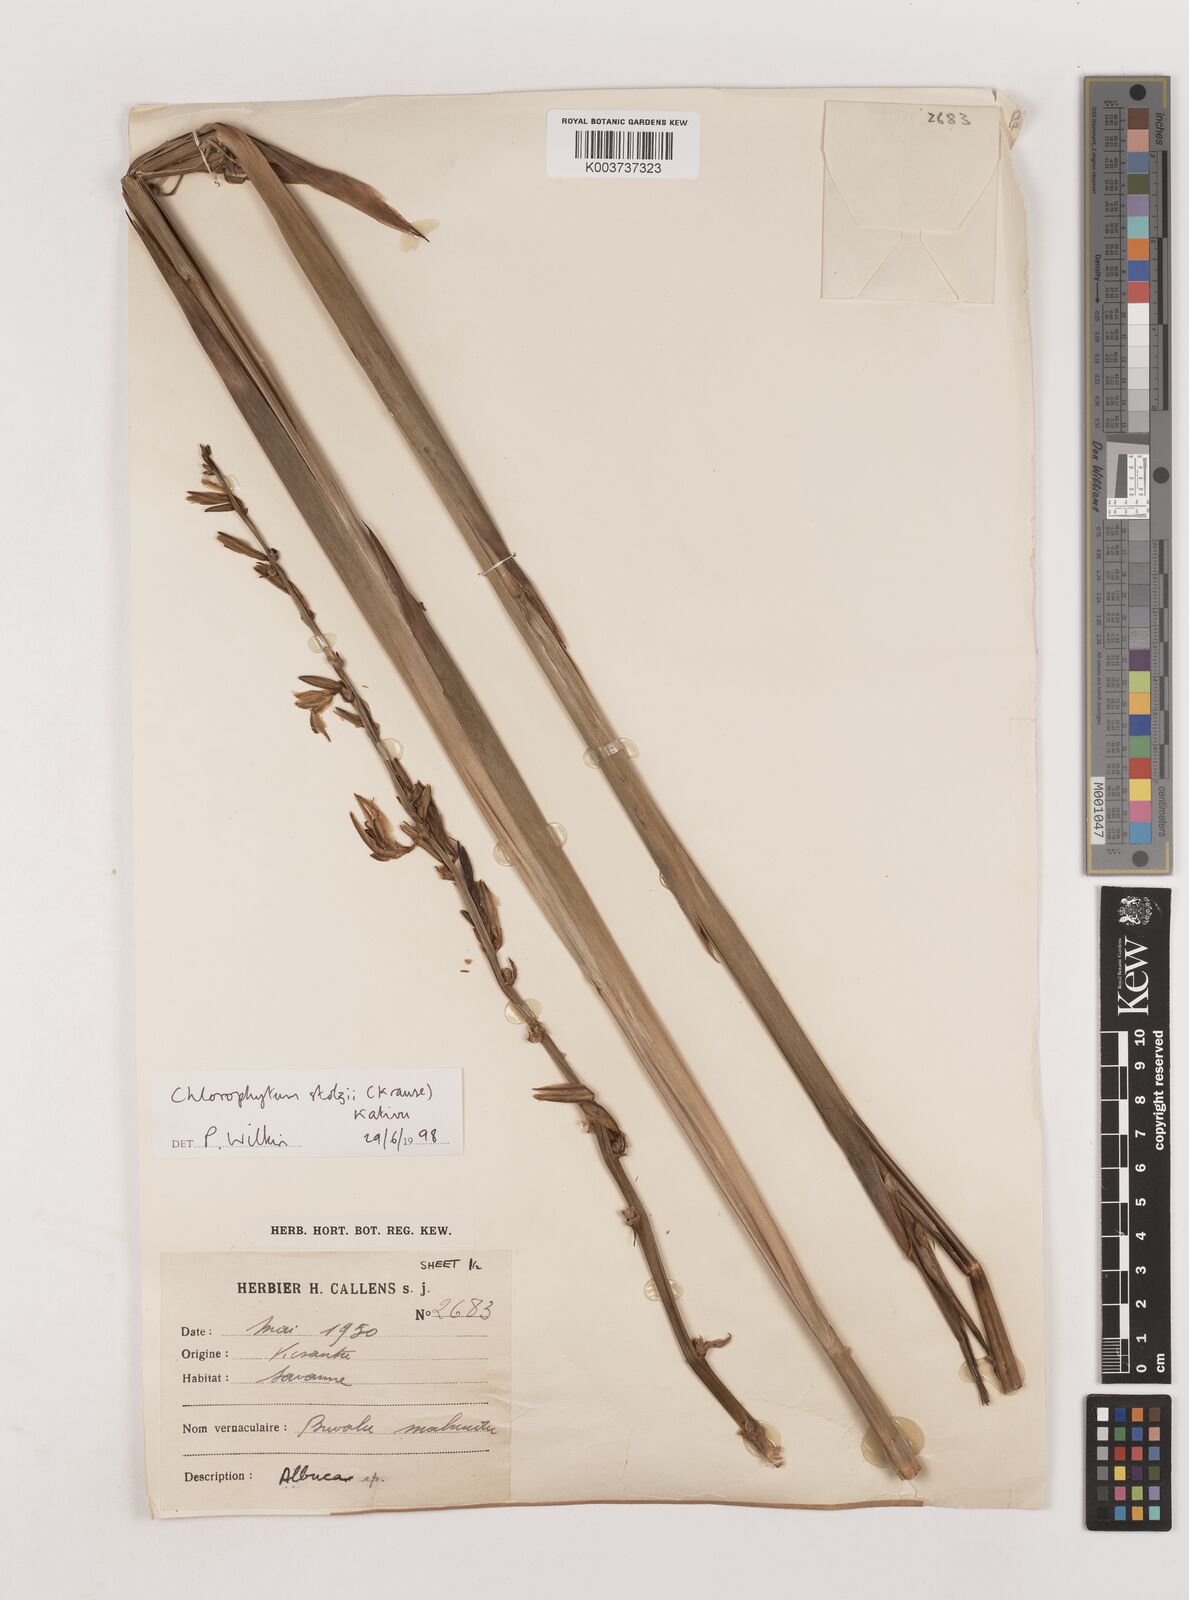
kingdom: Plantae
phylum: Tracheophyta
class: Liliopsida
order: Asparagales
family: Asparagaceae
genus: Chlorophytum
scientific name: Chlorophytum monophyllum
